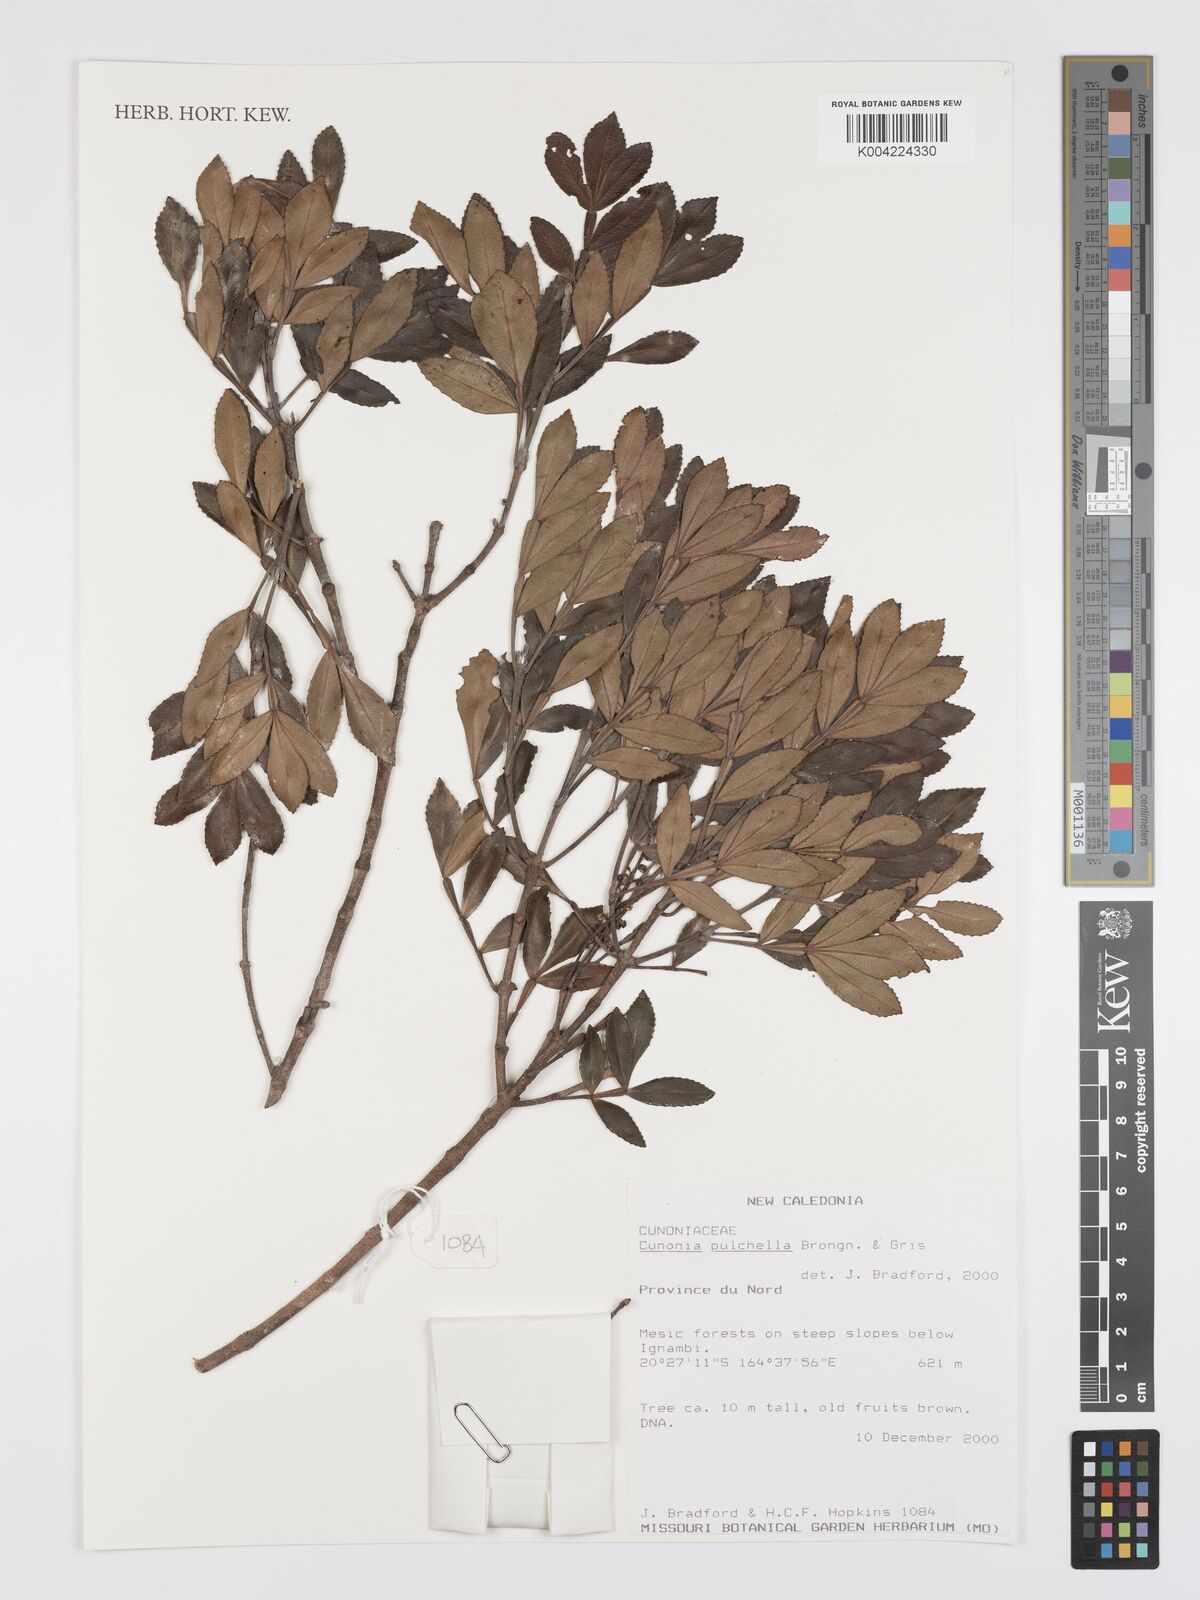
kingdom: Plantae
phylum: Tracheophyta
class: Magnoliopsida
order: Oxalidales
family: Cunoniaceae
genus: Cunonia
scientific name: Cunonia pulchella
